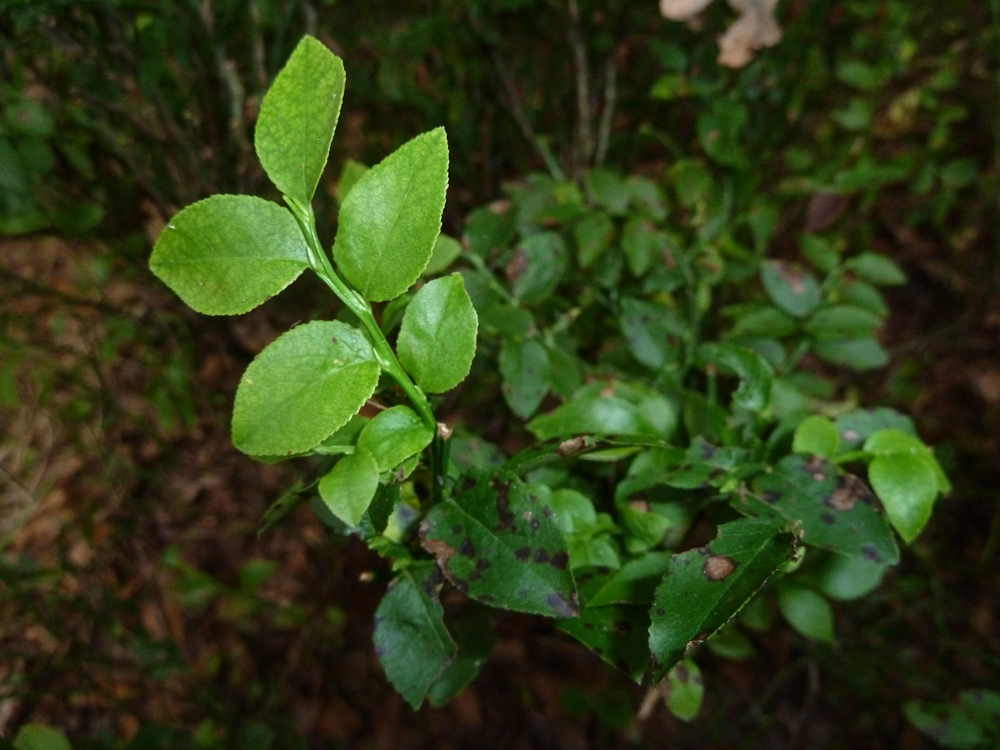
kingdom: Plantae
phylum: Tracheophyta
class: Magnoliopsida
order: Ericales
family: Ericaceae
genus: Vaccinium
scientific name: Vaccinium myrtillus
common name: Bilberry
